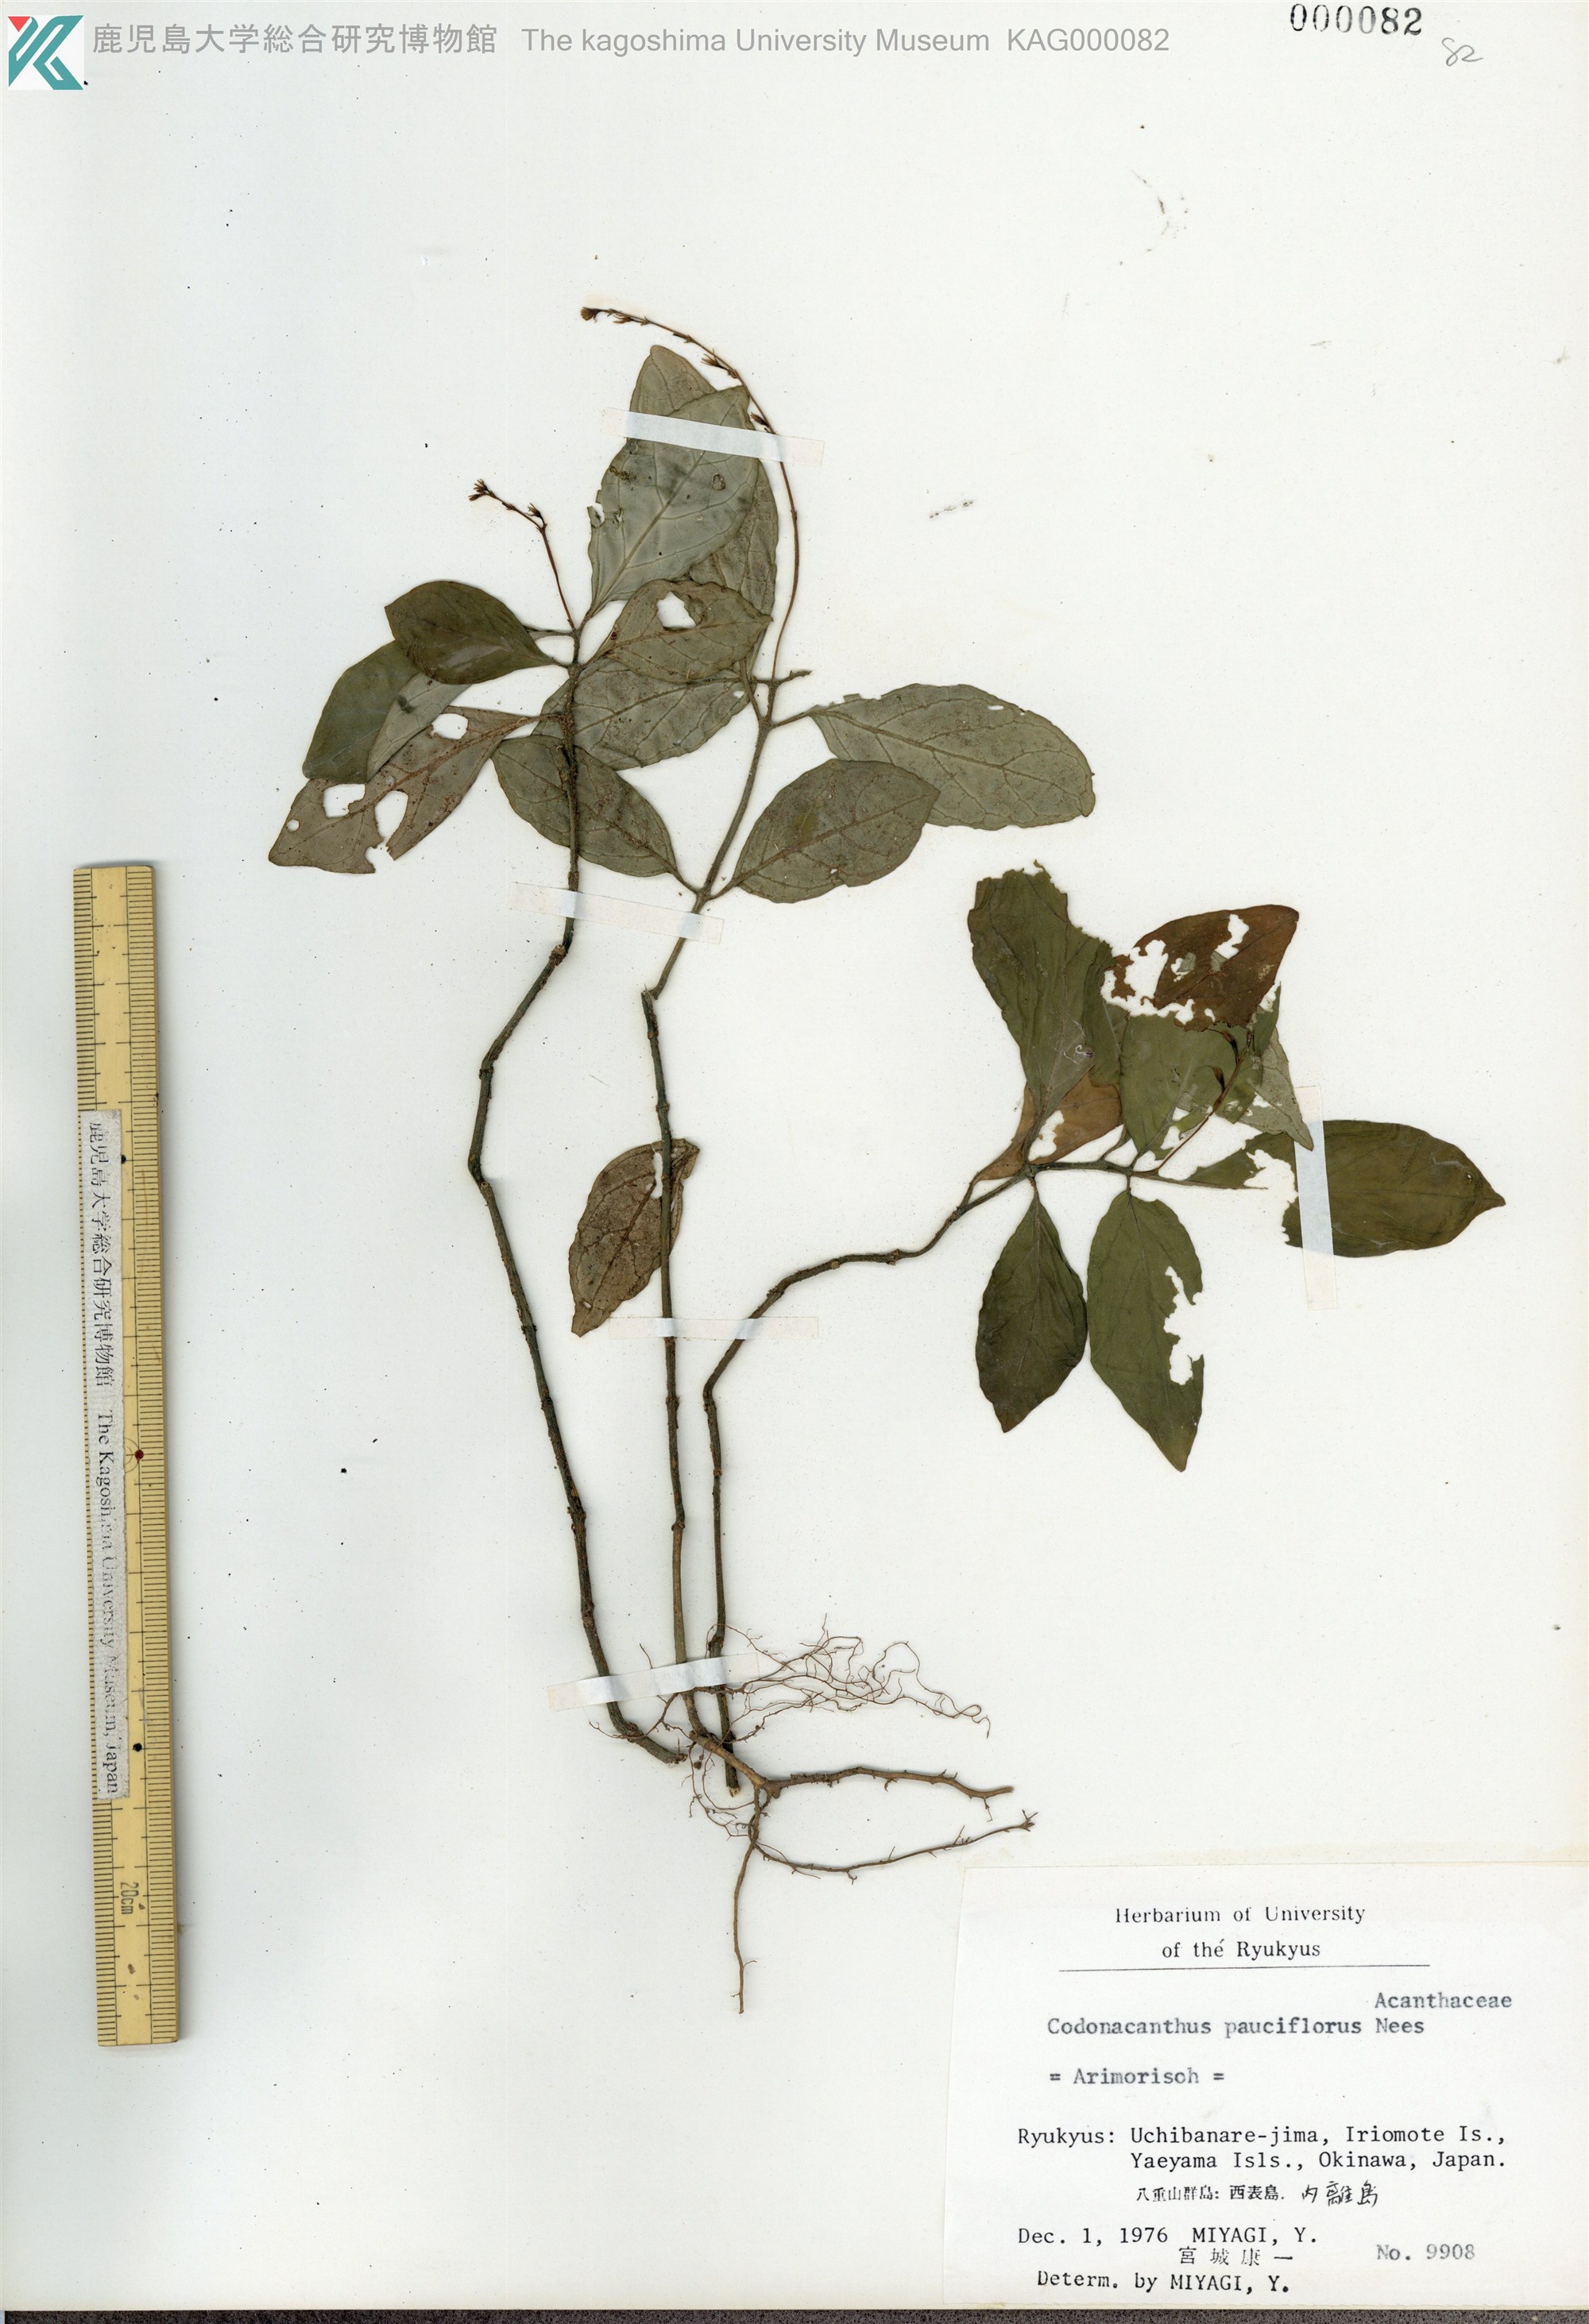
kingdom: Plantae
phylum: Tracheophyta
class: Magnoliopsida
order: Lamiales
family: Acanthaceae
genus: Codonacanthus
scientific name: Codonacanthus pauciflorus
